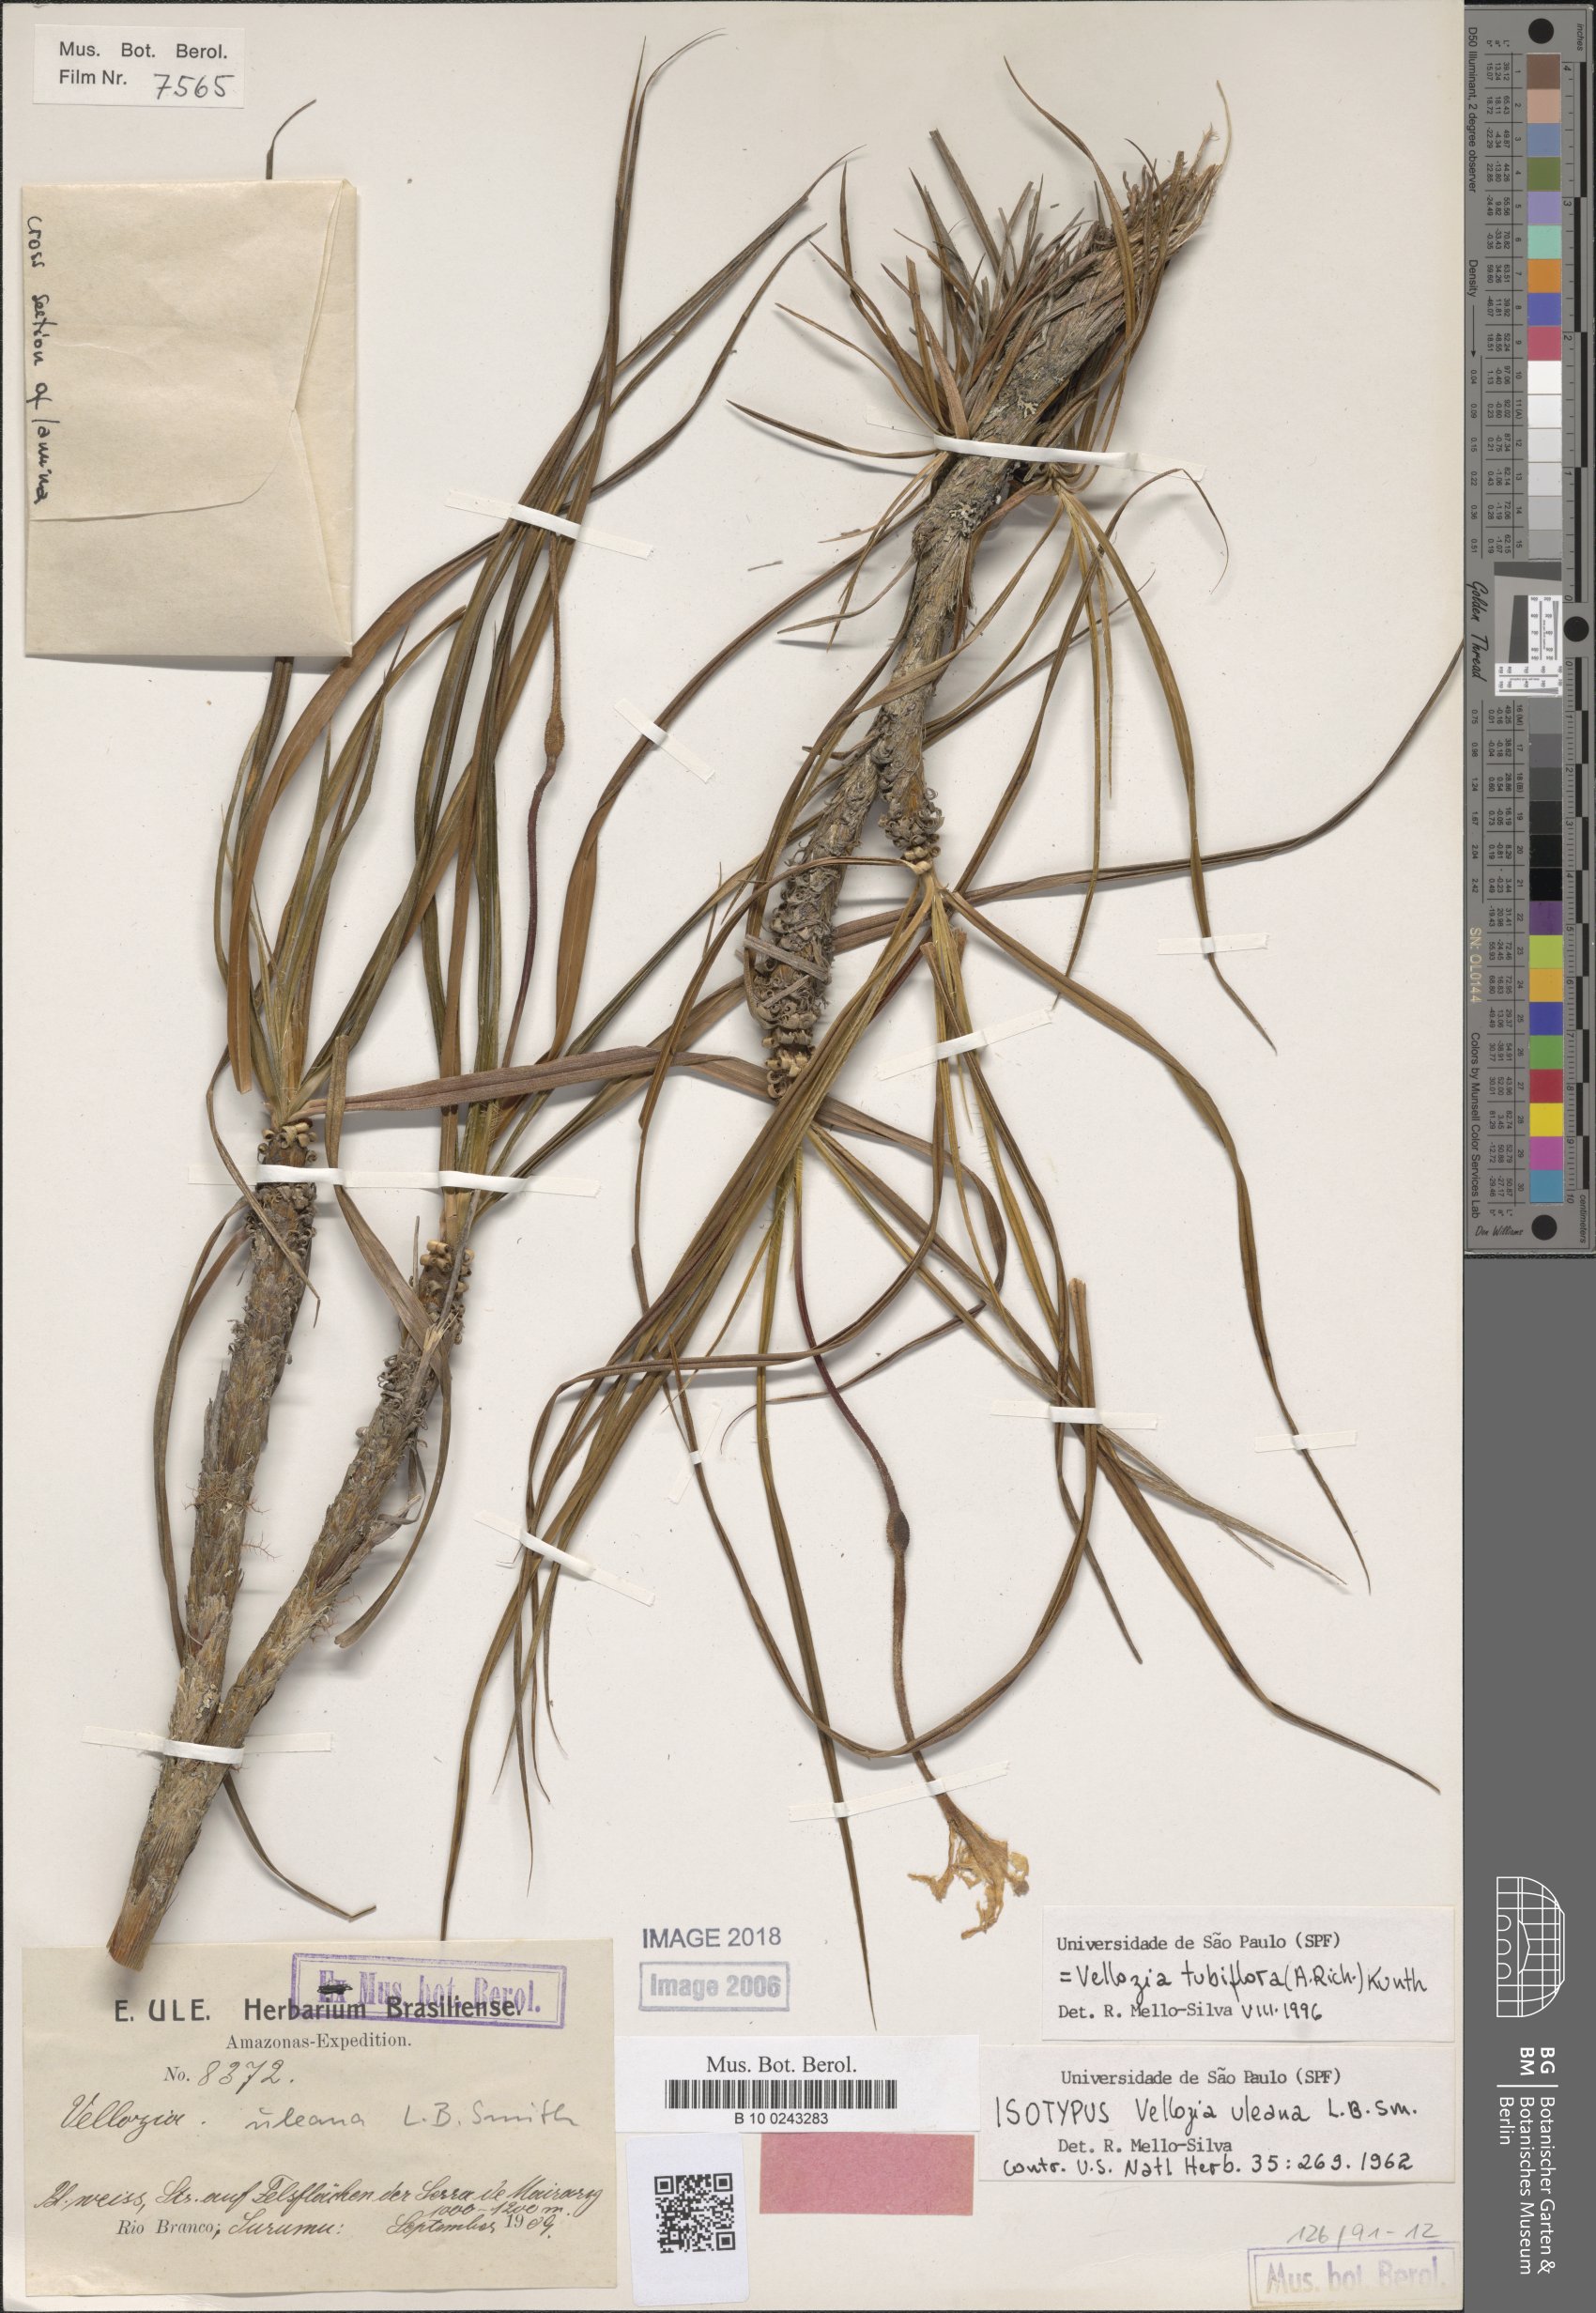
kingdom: Plantae
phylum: Tracheophyta
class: Liliopsida
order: Pandanales
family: Velloziaceae
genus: Vellozia
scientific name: Vellozia tubiflora
